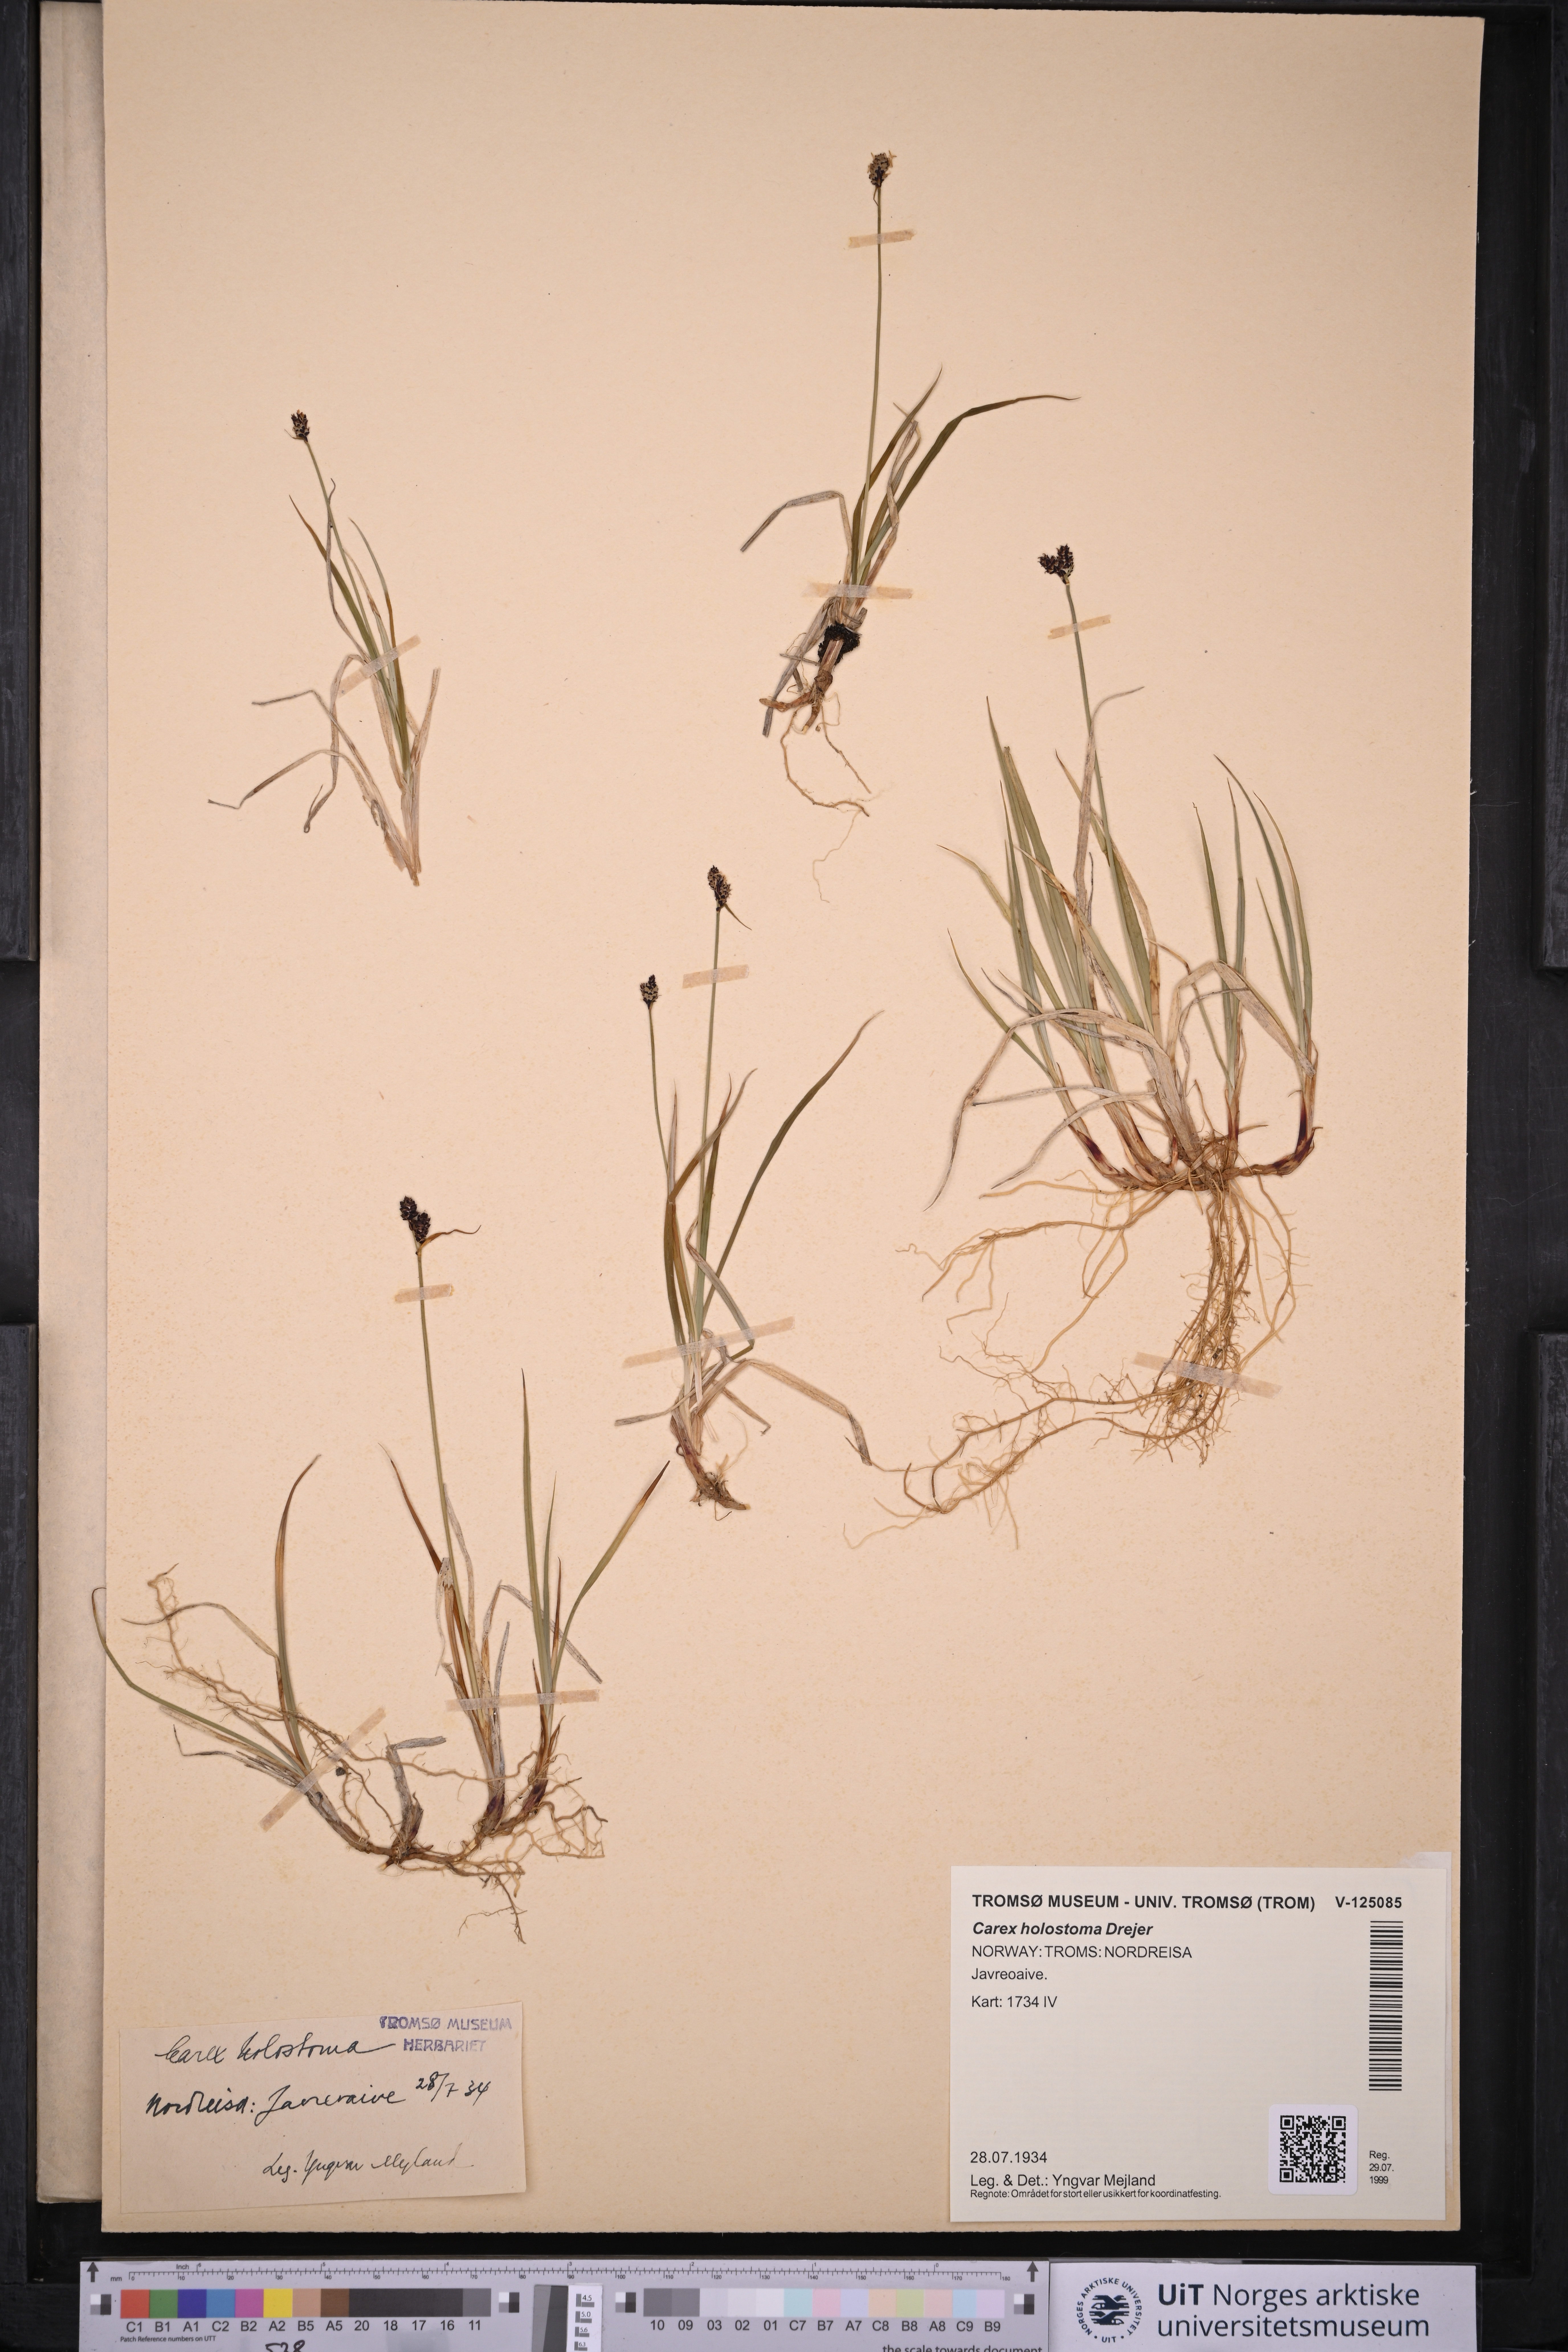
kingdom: Plantae
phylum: Tracheophyta
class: Liliopsida
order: Poales
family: Cyperaceae
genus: Carex
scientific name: Carex holostoma
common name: Arctic marsh sedge
